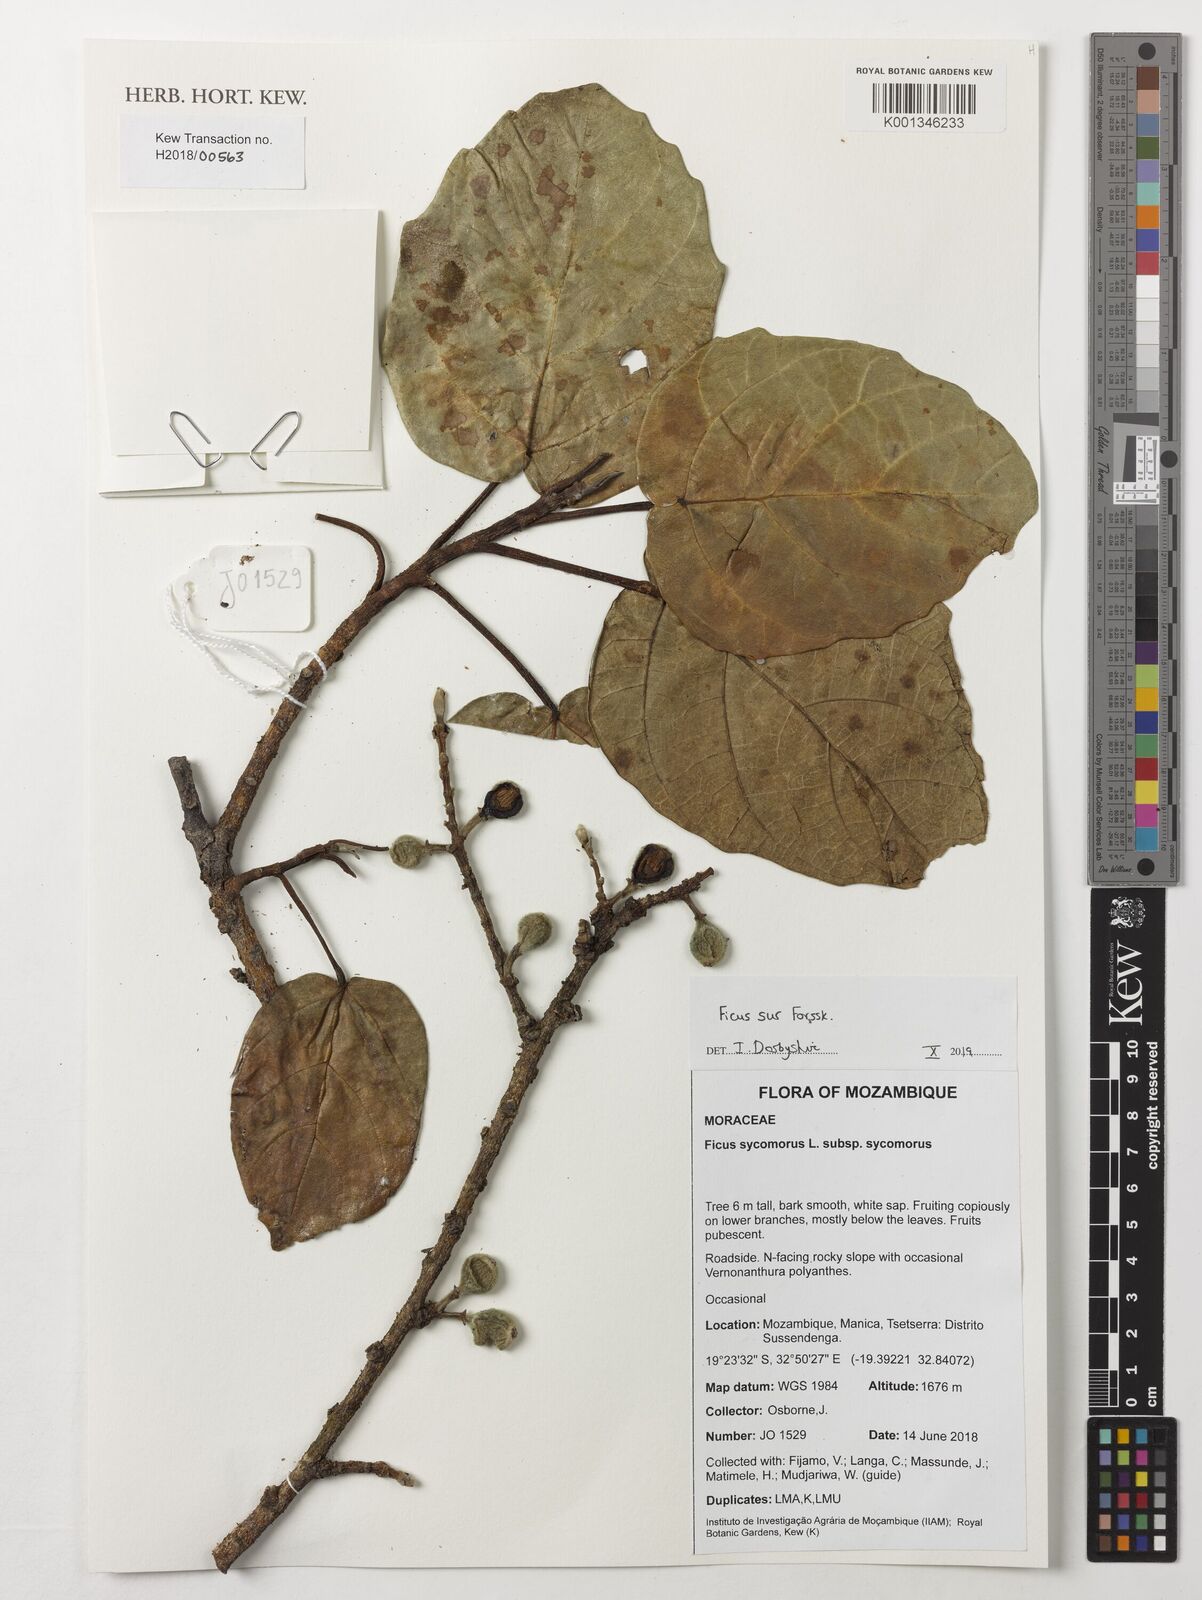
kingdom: Plantae
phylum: Tracheophyta
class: Magnoliopsida
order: Rosales
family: Moraceae
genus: Ficus
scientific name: Ficus sur
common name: Cape fig
